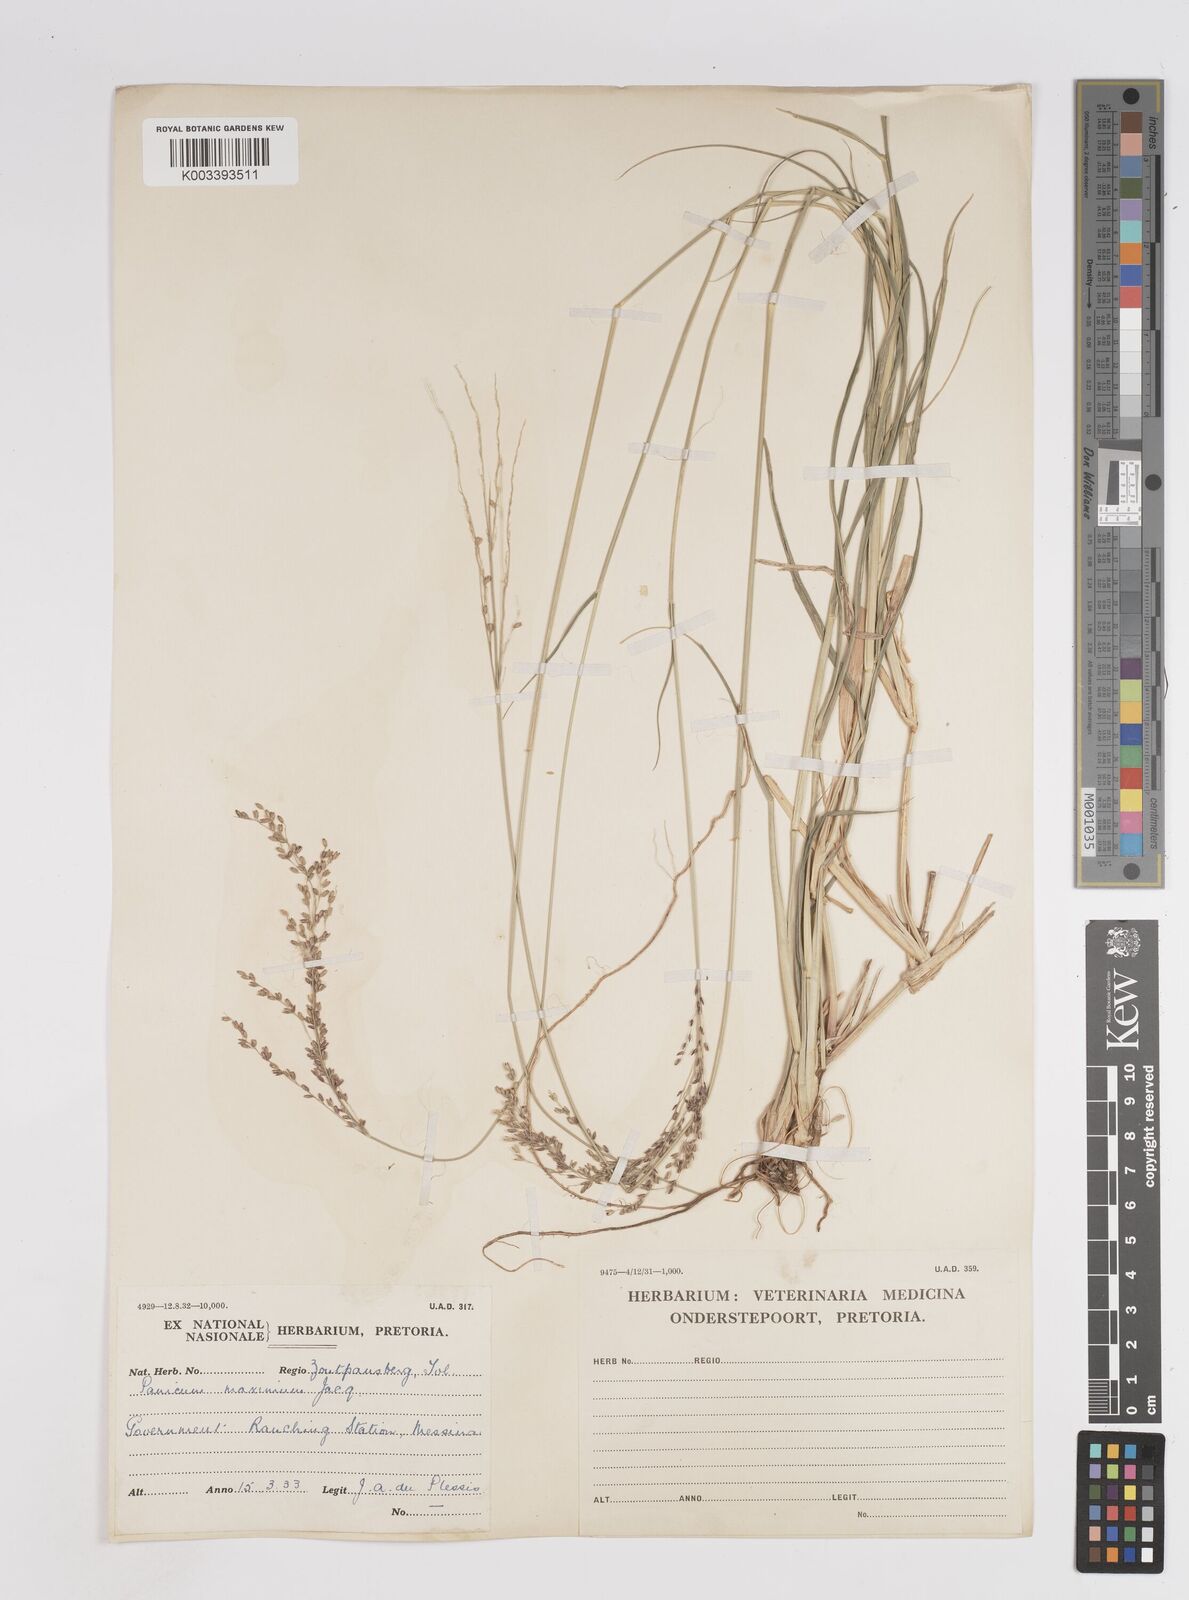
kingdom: Plantae
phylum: Tracheophyta
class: Liliopsida
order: Poales
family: Poaceae
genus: Megathyrsus
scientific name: Megathyrsus maximus
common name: Guineagrass
